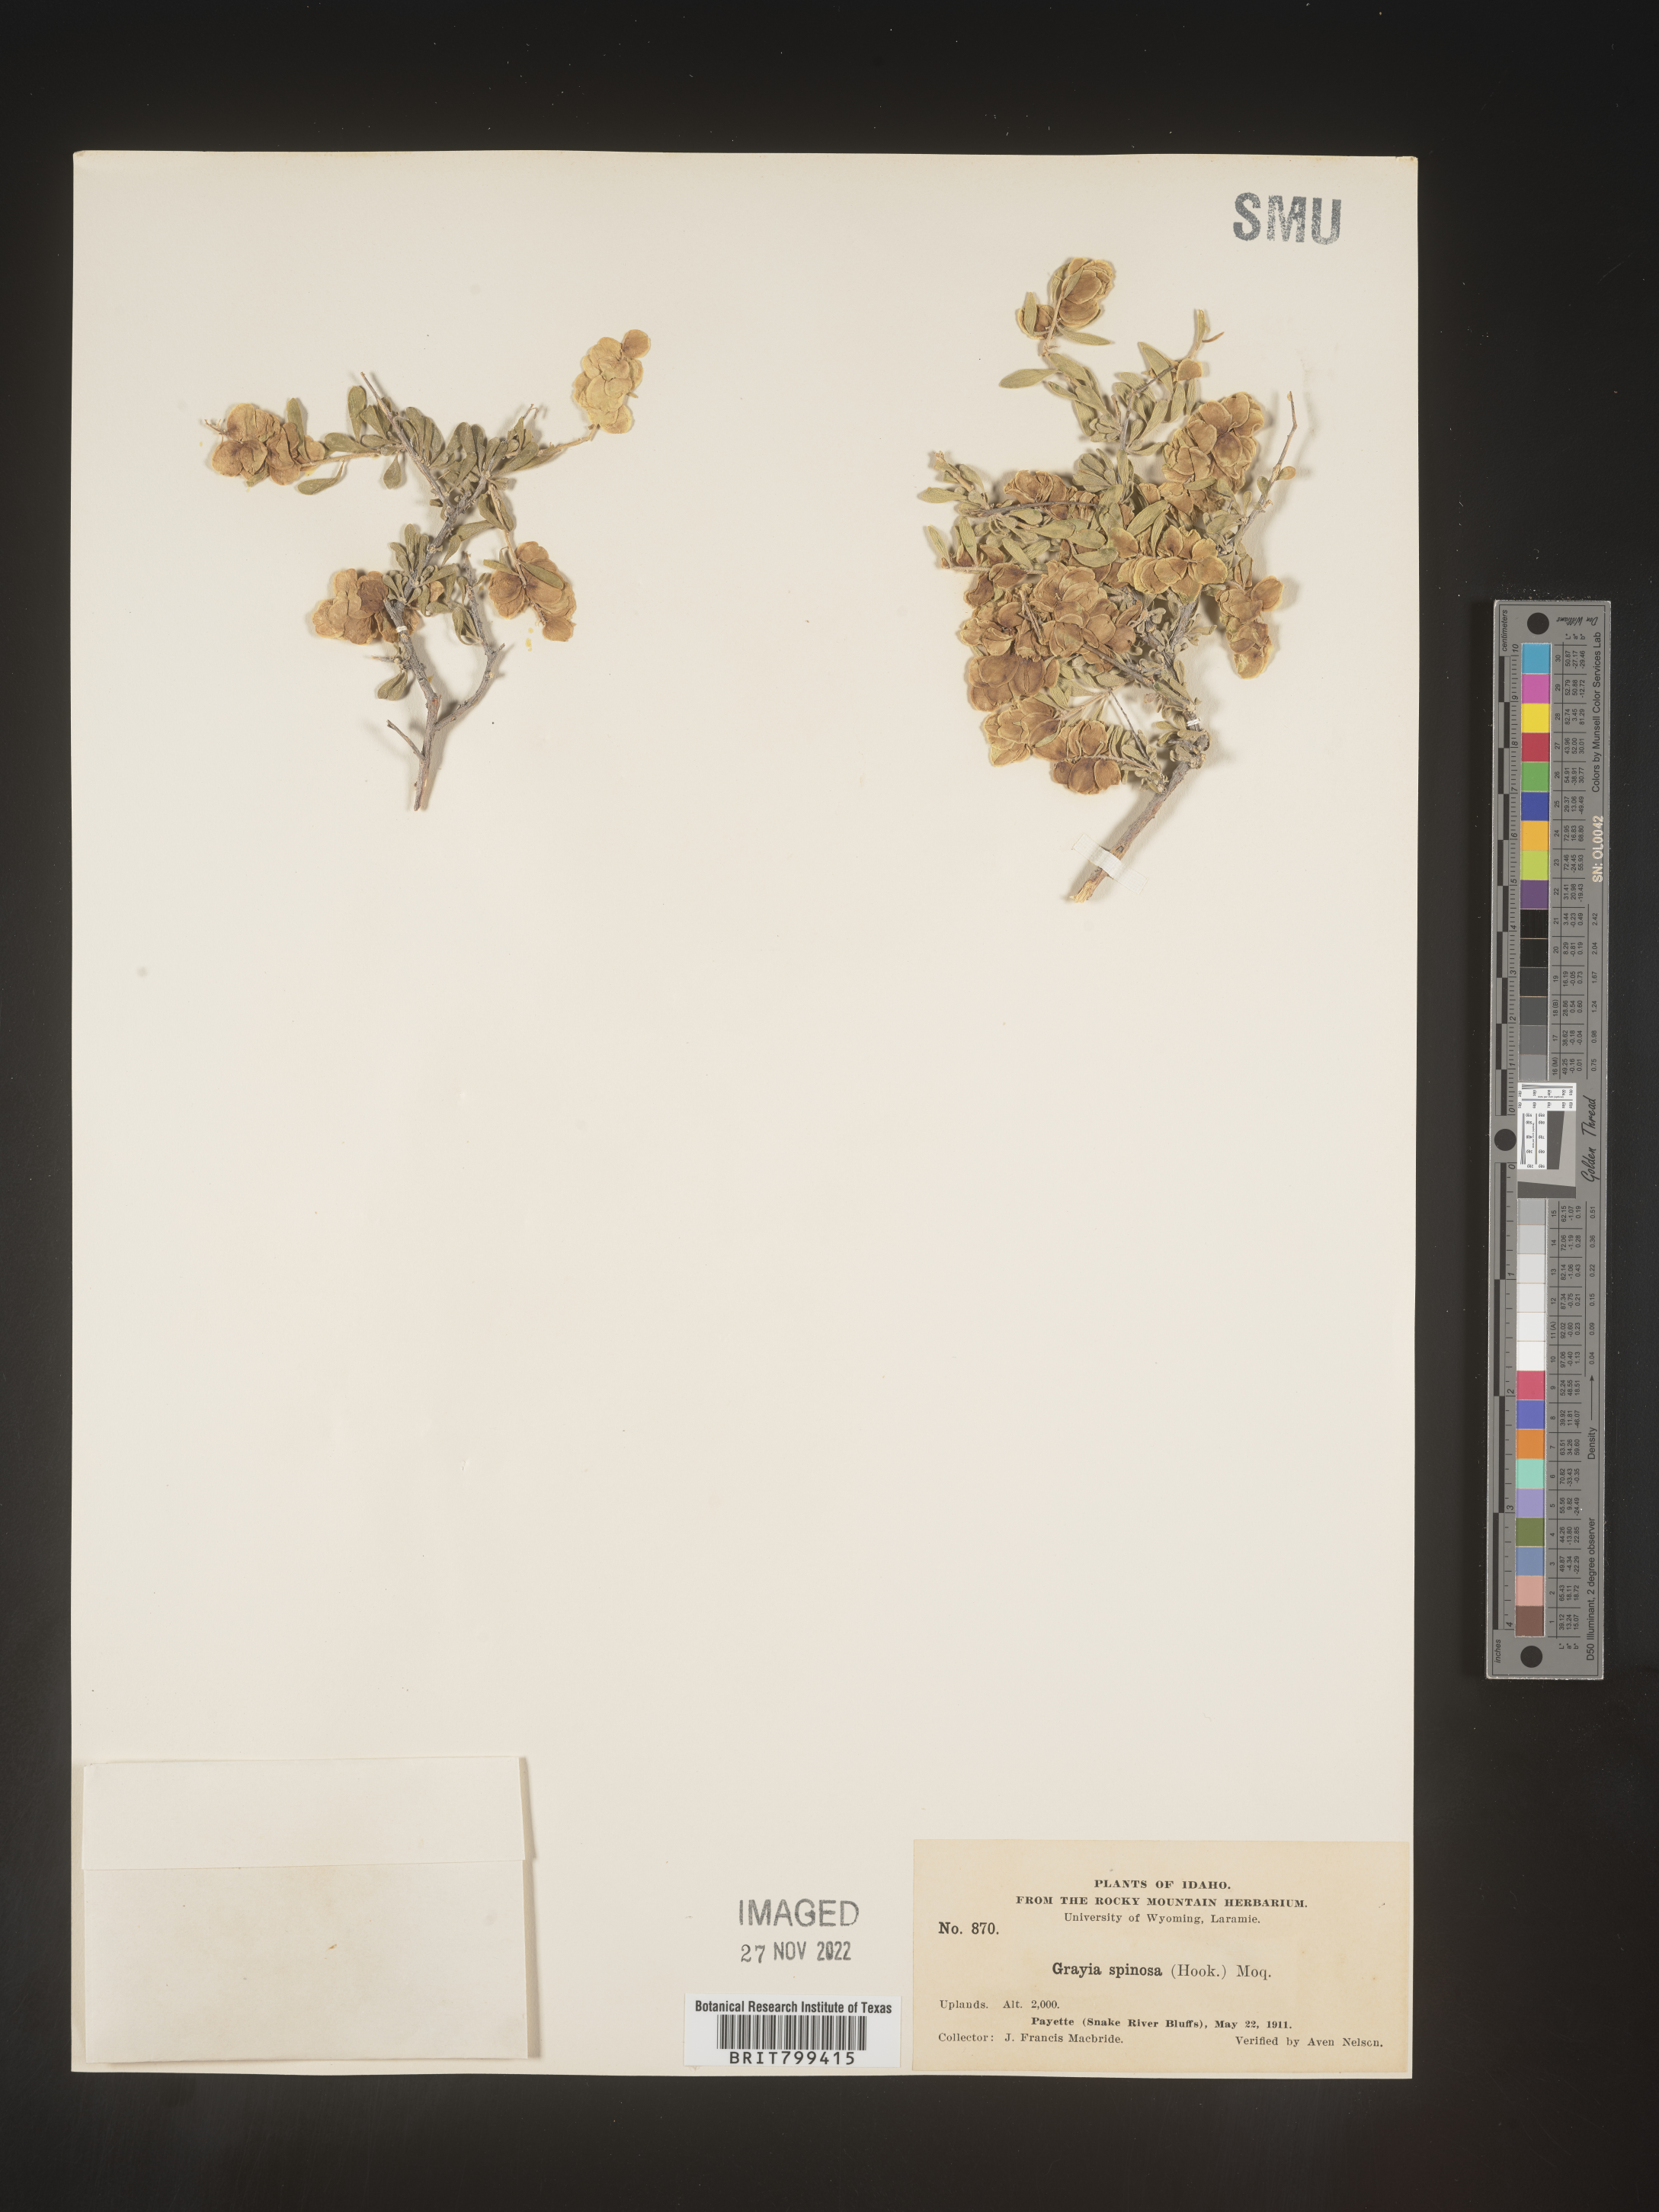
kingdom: Plantae
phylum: Tracheophyta
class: Magnoliopsida
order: Caryophyllales
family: Amaranthaceae
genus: Grayia
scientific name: Grayia spinosa
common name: Spiny hopsage
